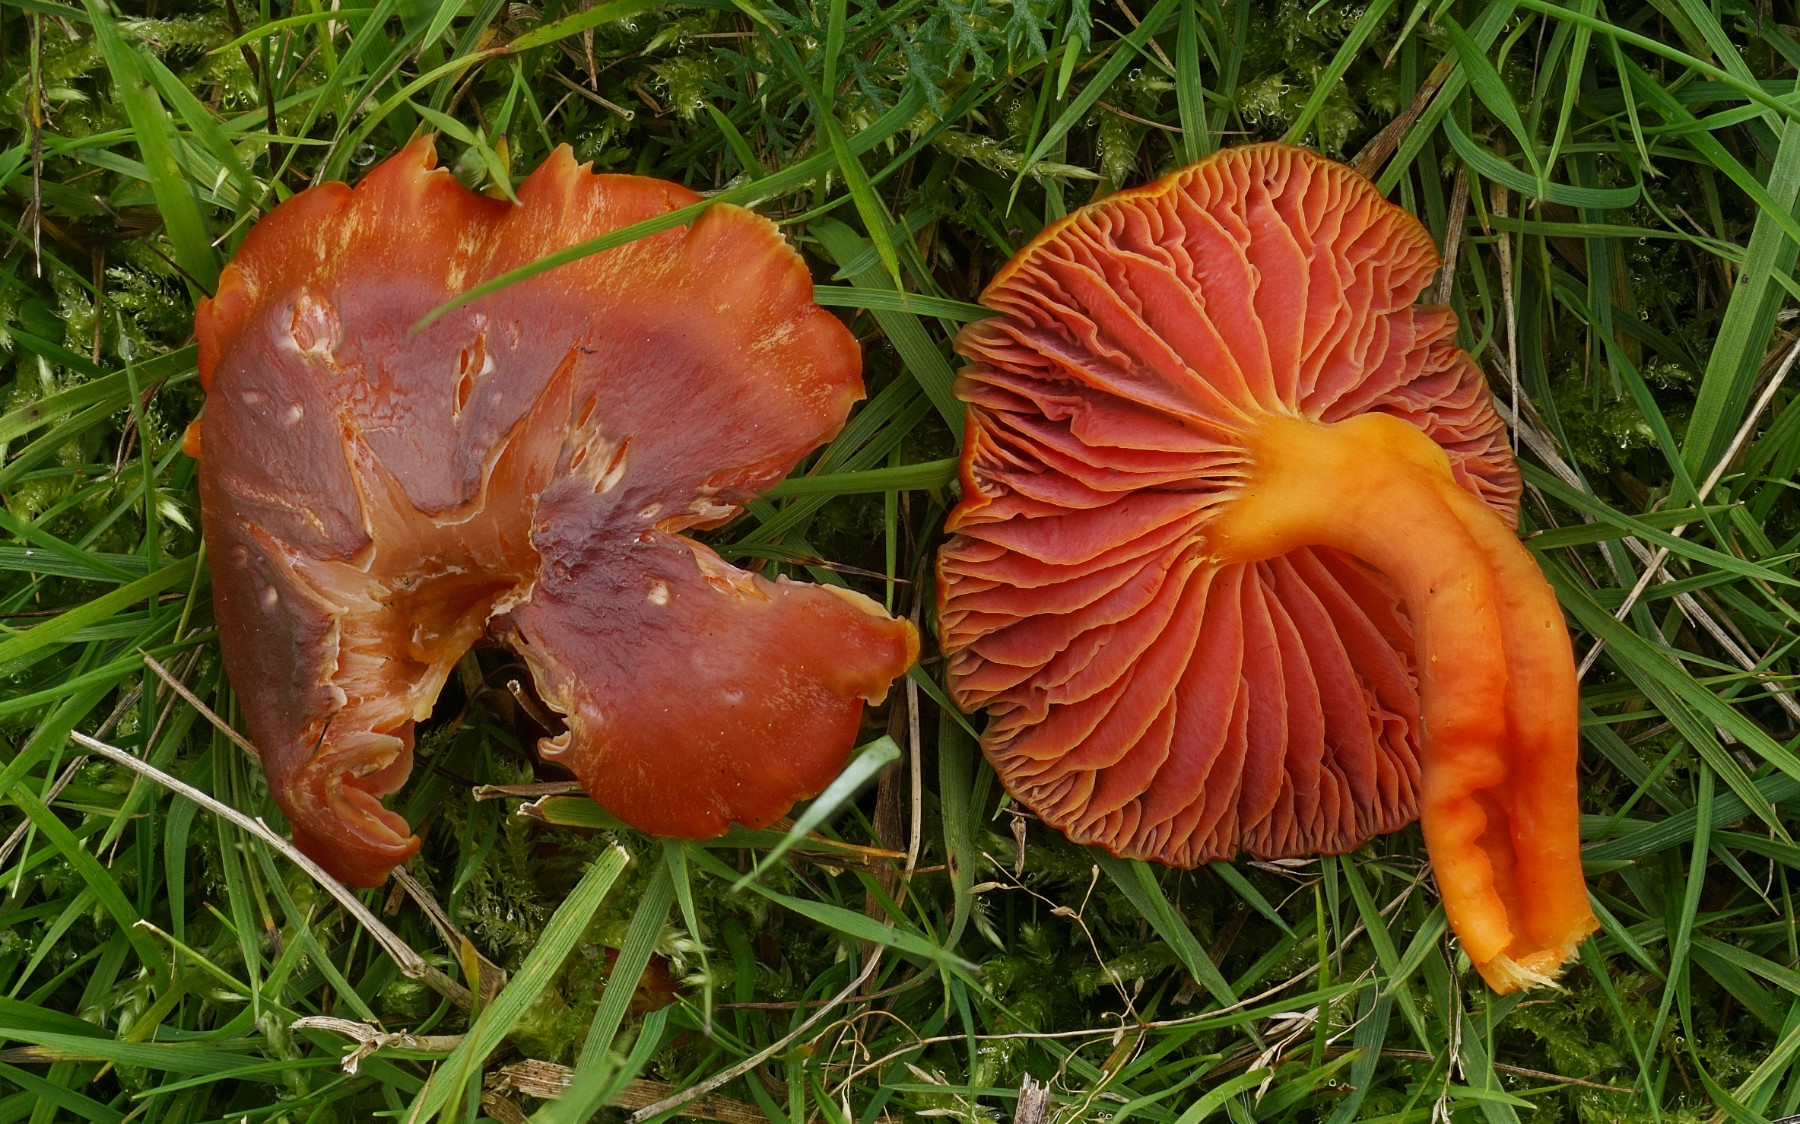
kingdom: Fungi
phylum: Basidiomycota
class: Agaricomycetes
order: Agaricales
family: Hygrophoraceae
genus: Hygrocybe
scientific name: Hygrocybe phaeococcinea
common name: sortdugget vokshat
